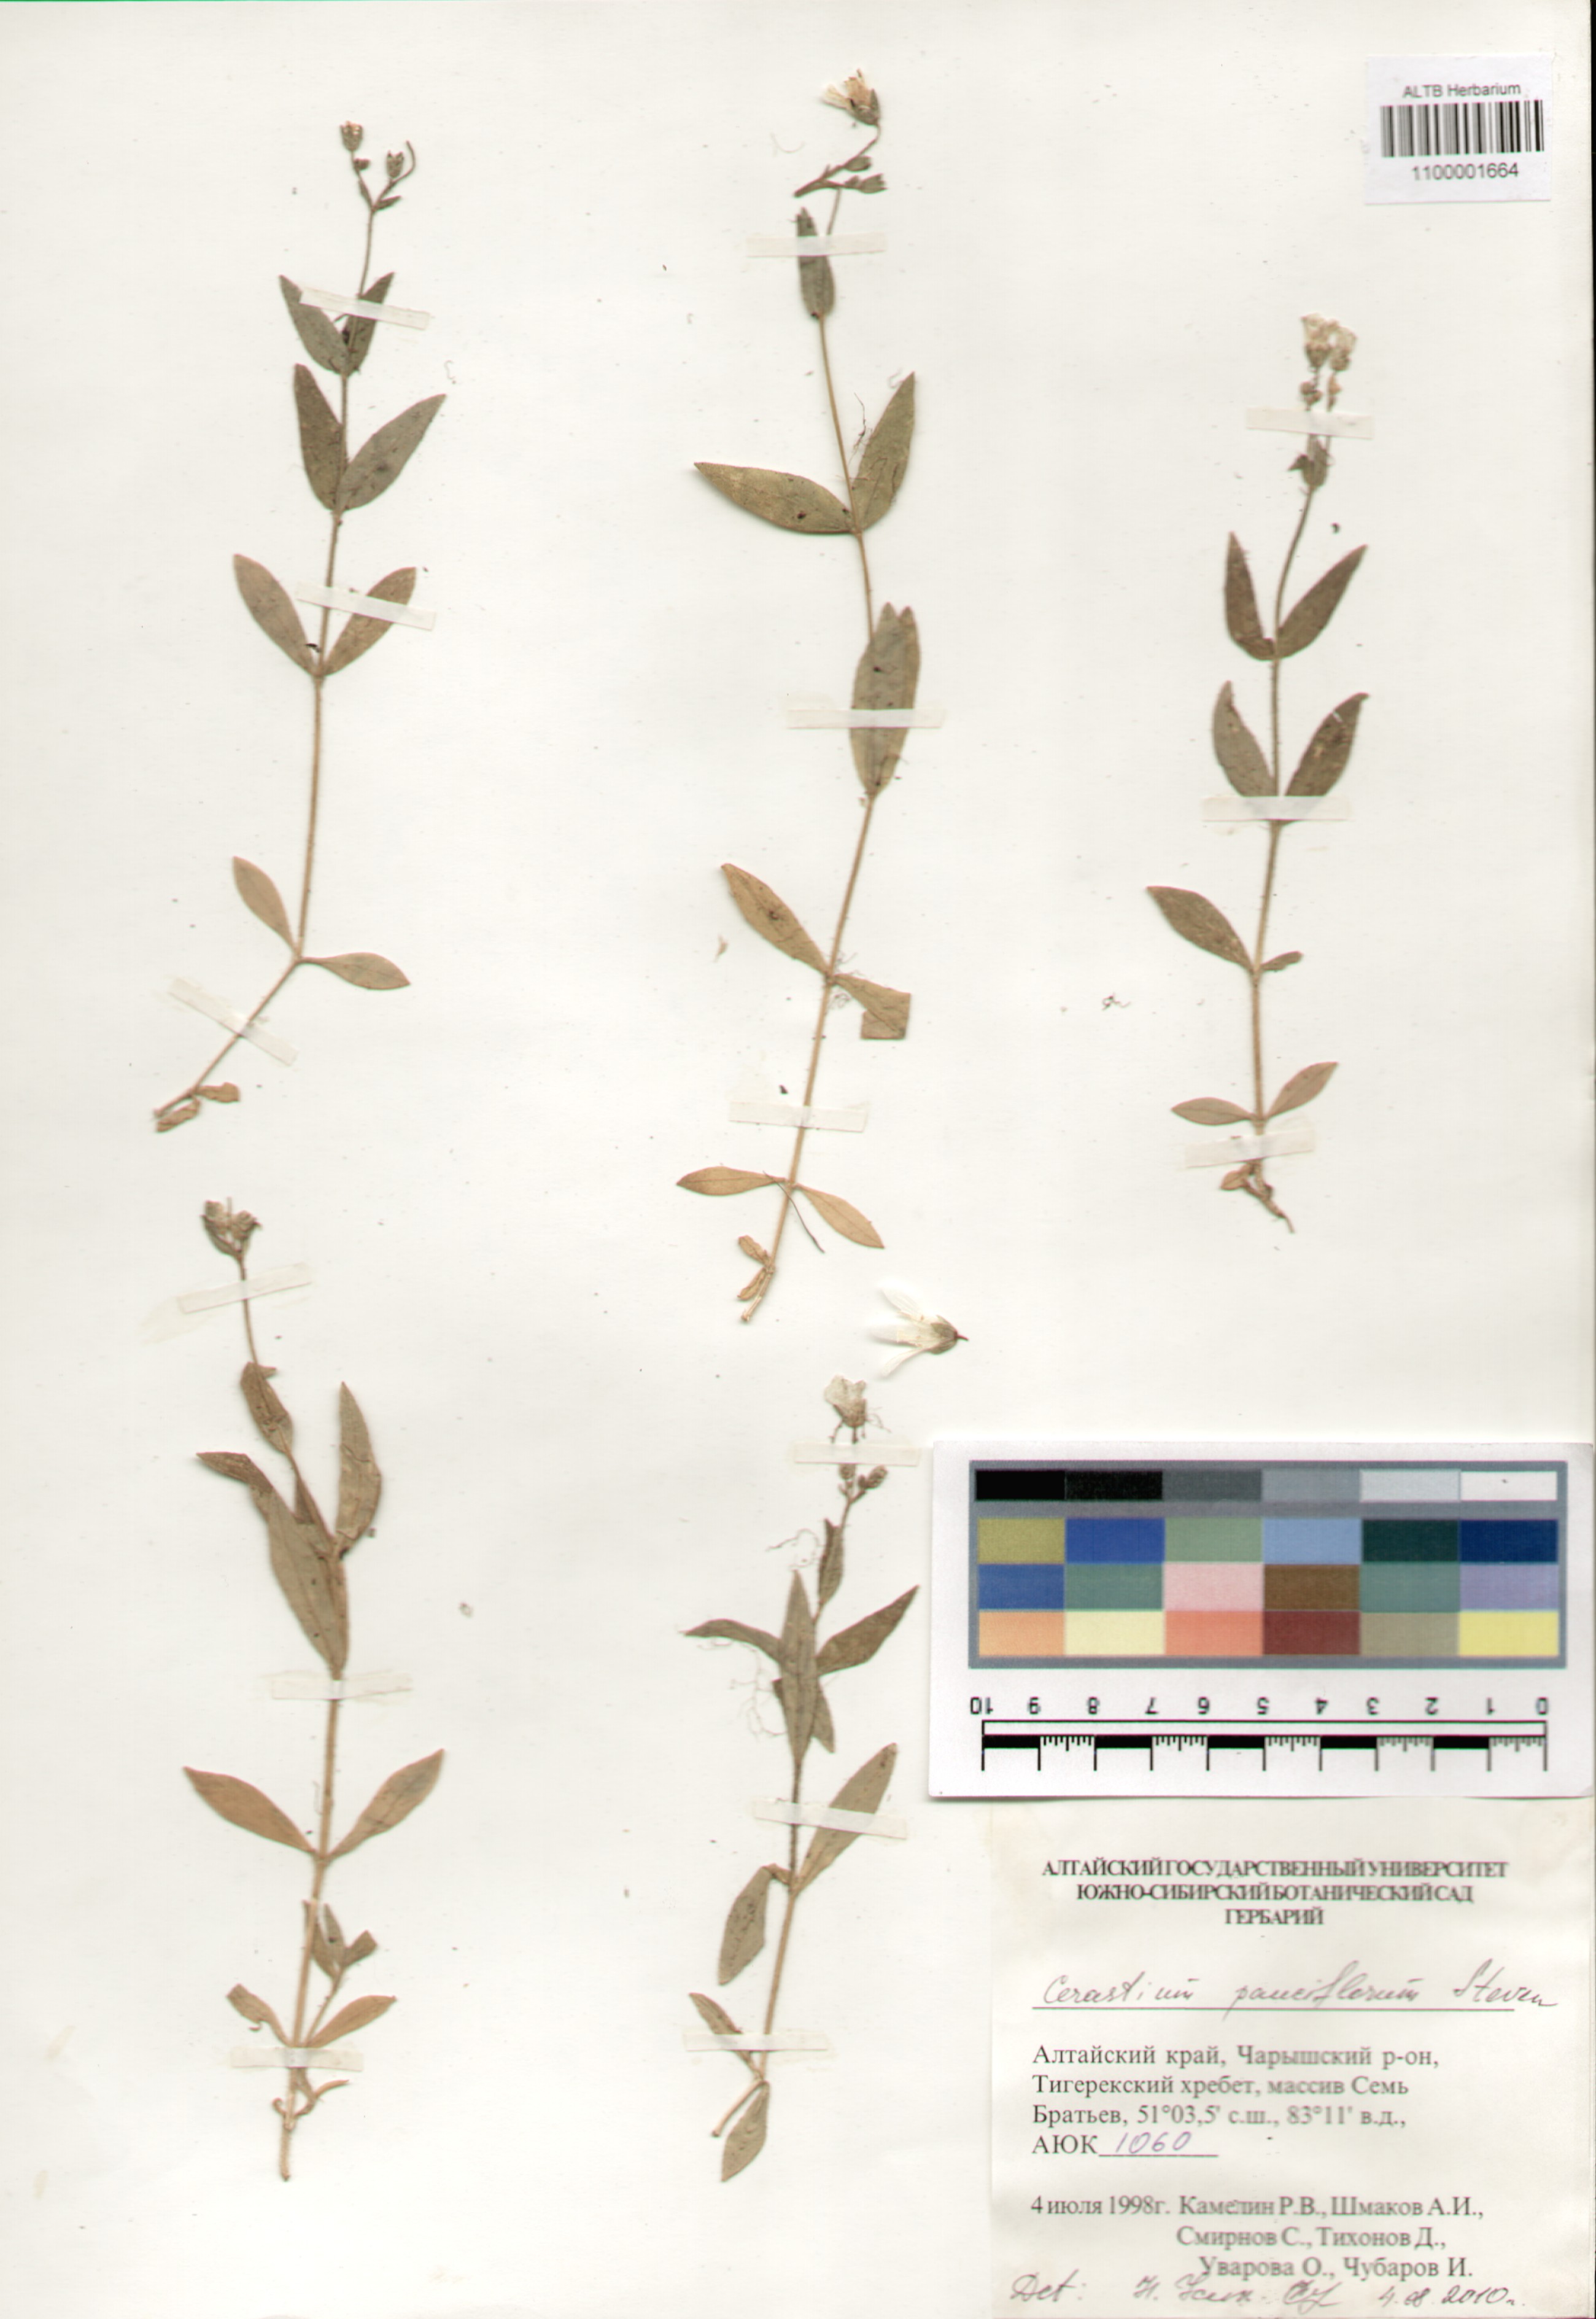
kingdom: Plantae
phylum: Tracheophyta
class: Magnoliopsida
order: Caryophyllales
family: Caryophyllaceae
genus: Cerastium
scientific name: Cerastium pauciflorum
